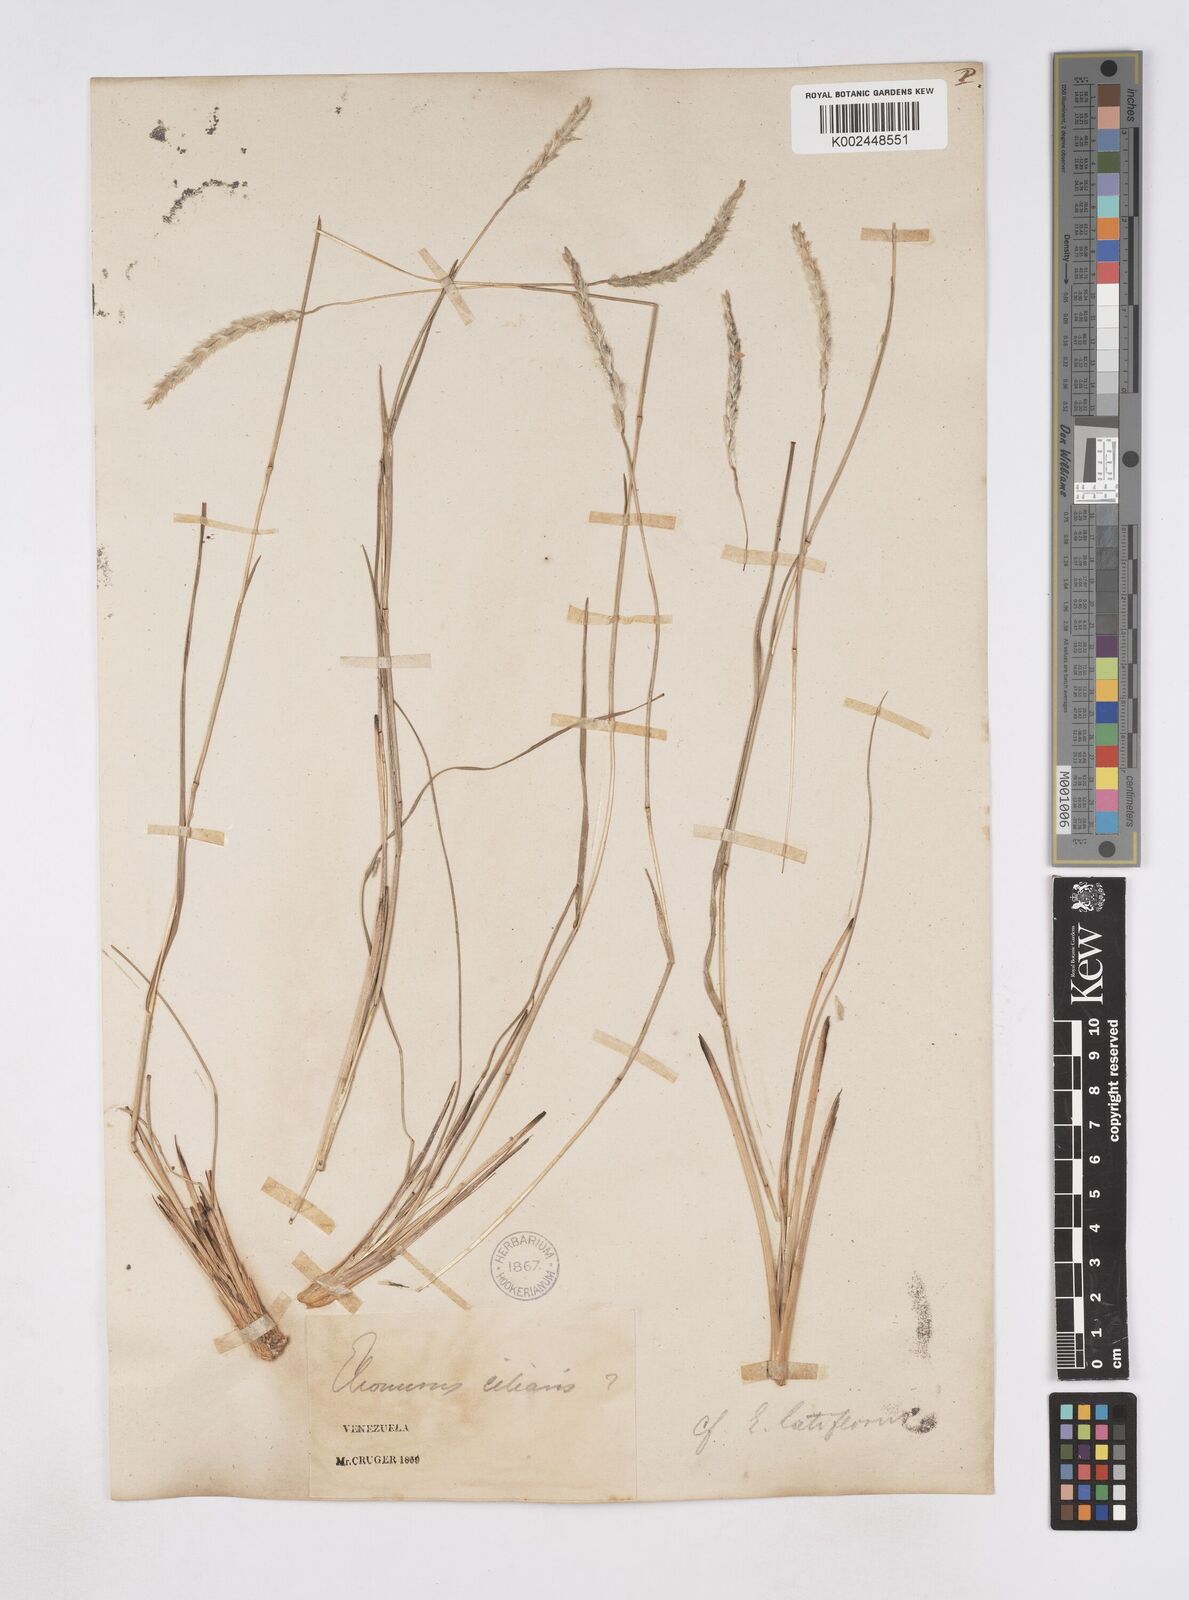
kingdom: Plantae
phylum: Tracheophyta
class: Liliopsida
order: Poales
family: Poaceae
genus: Elionurus
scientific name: Elionurus planifolius
